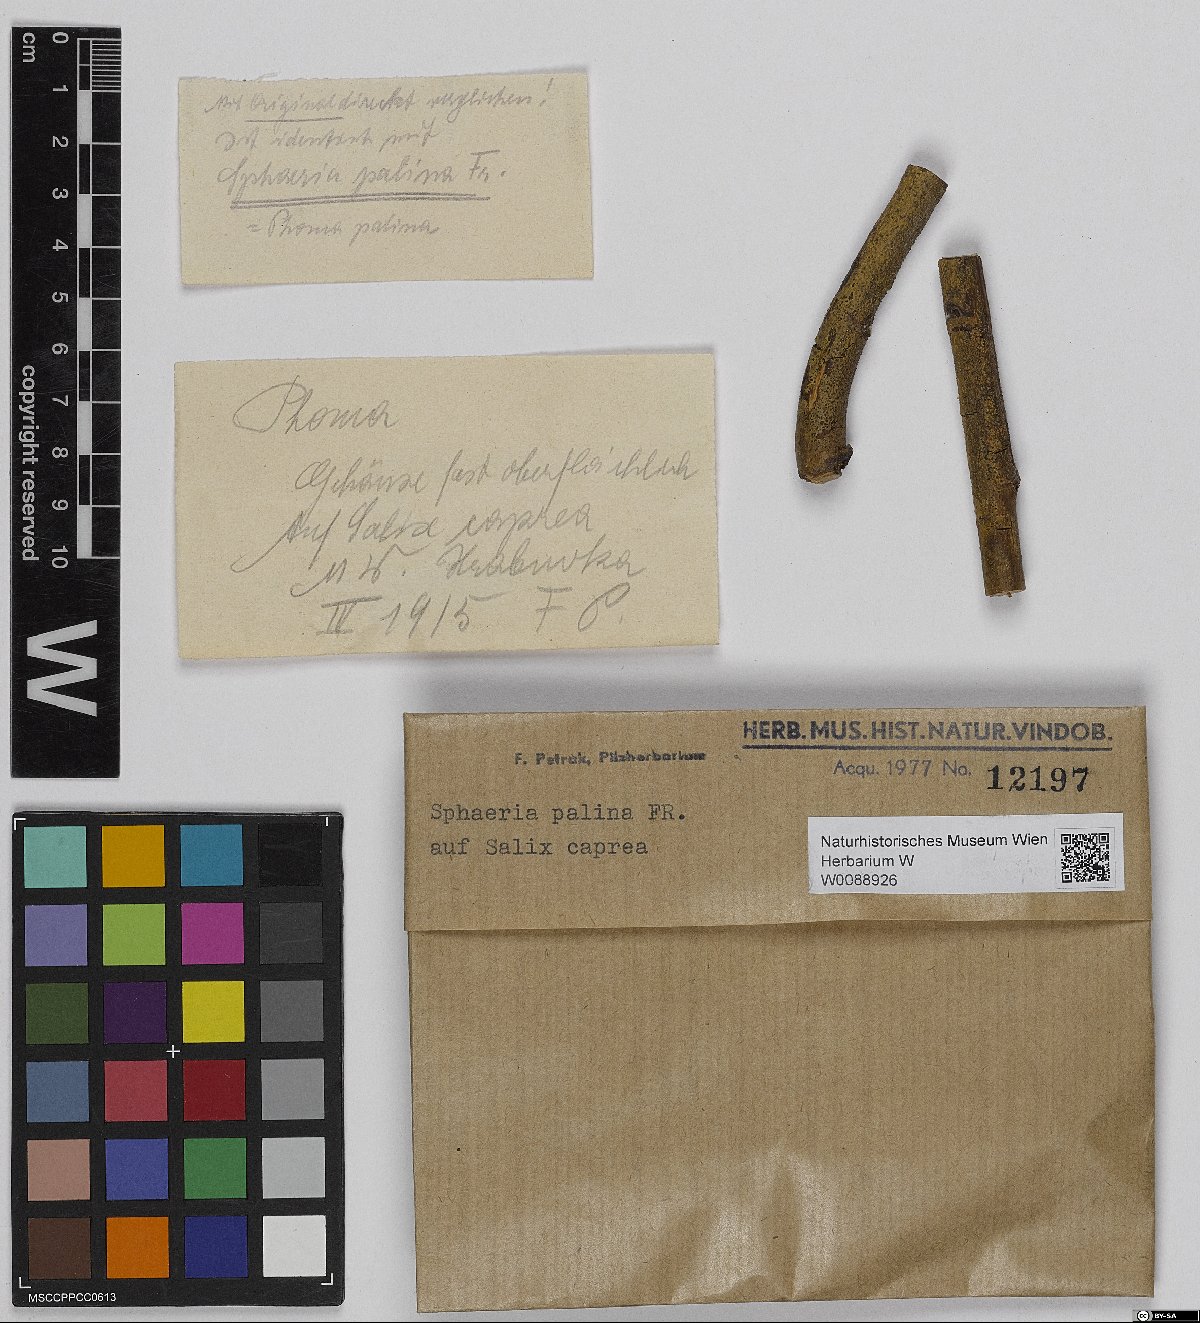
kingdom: Fungi
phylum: Ascomycota
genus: Glutinium
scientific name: Glutinium palinum
